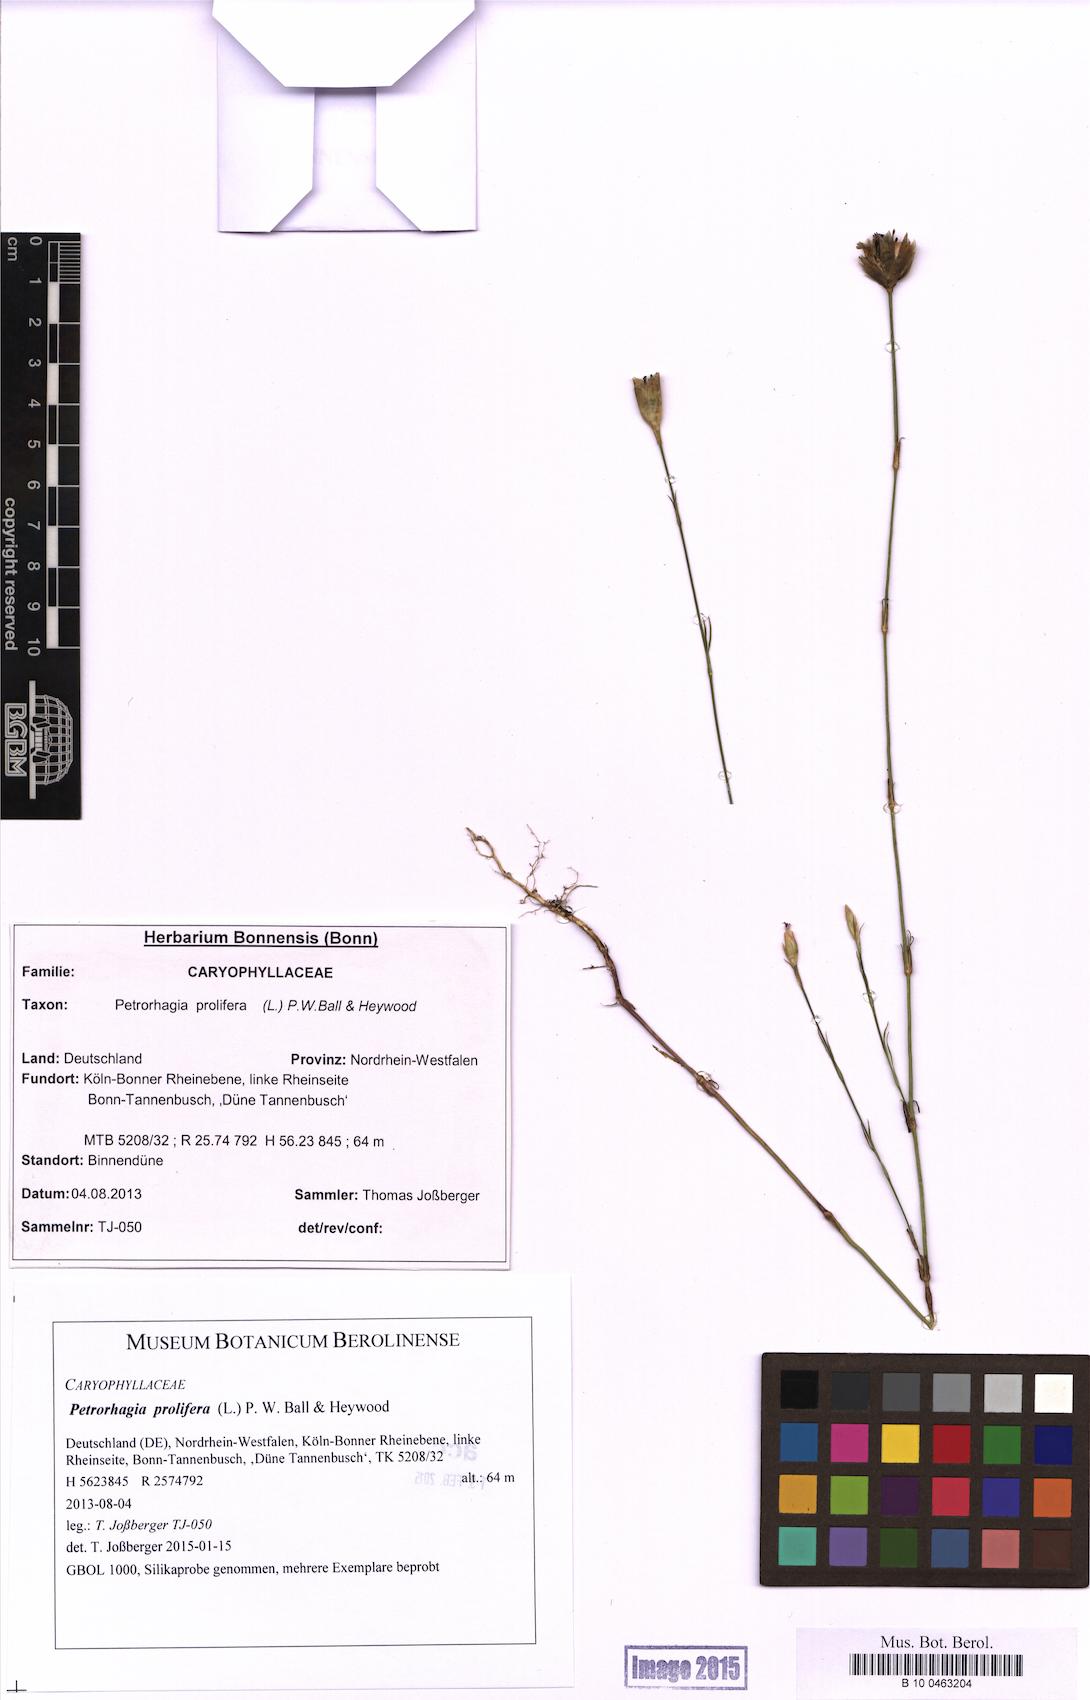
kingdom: Plantae
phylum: Tracheophyta
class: Magnoliopsida
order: Caryophyllales
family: Caryophyllaceae
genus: Petrorhagia
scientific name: Petrorhagia prolifera
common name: Proliferous pink
